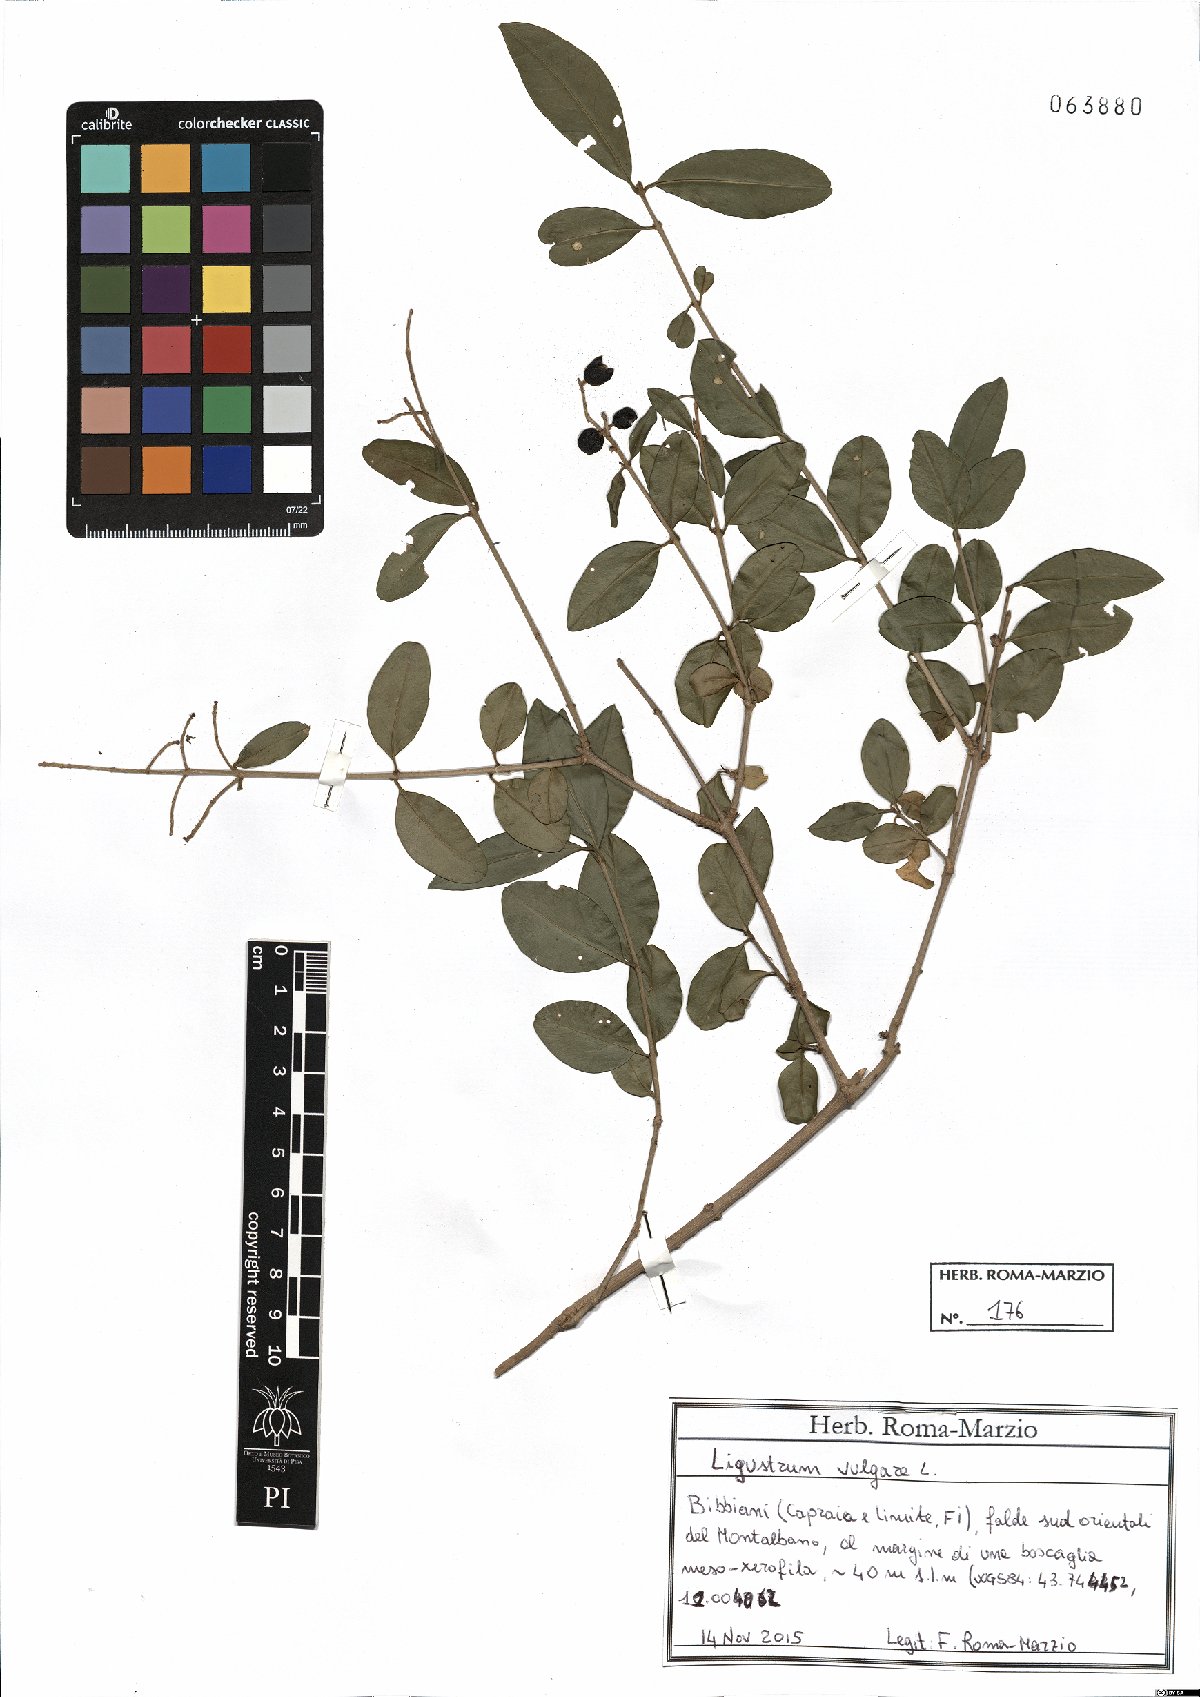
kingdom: Plantae
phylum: Tracheophyta
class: Magnoliopsida
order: Lamiales
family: Oleaceae
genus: Ligustrum
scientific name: Ligustrum vulgare
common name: Wild privet
